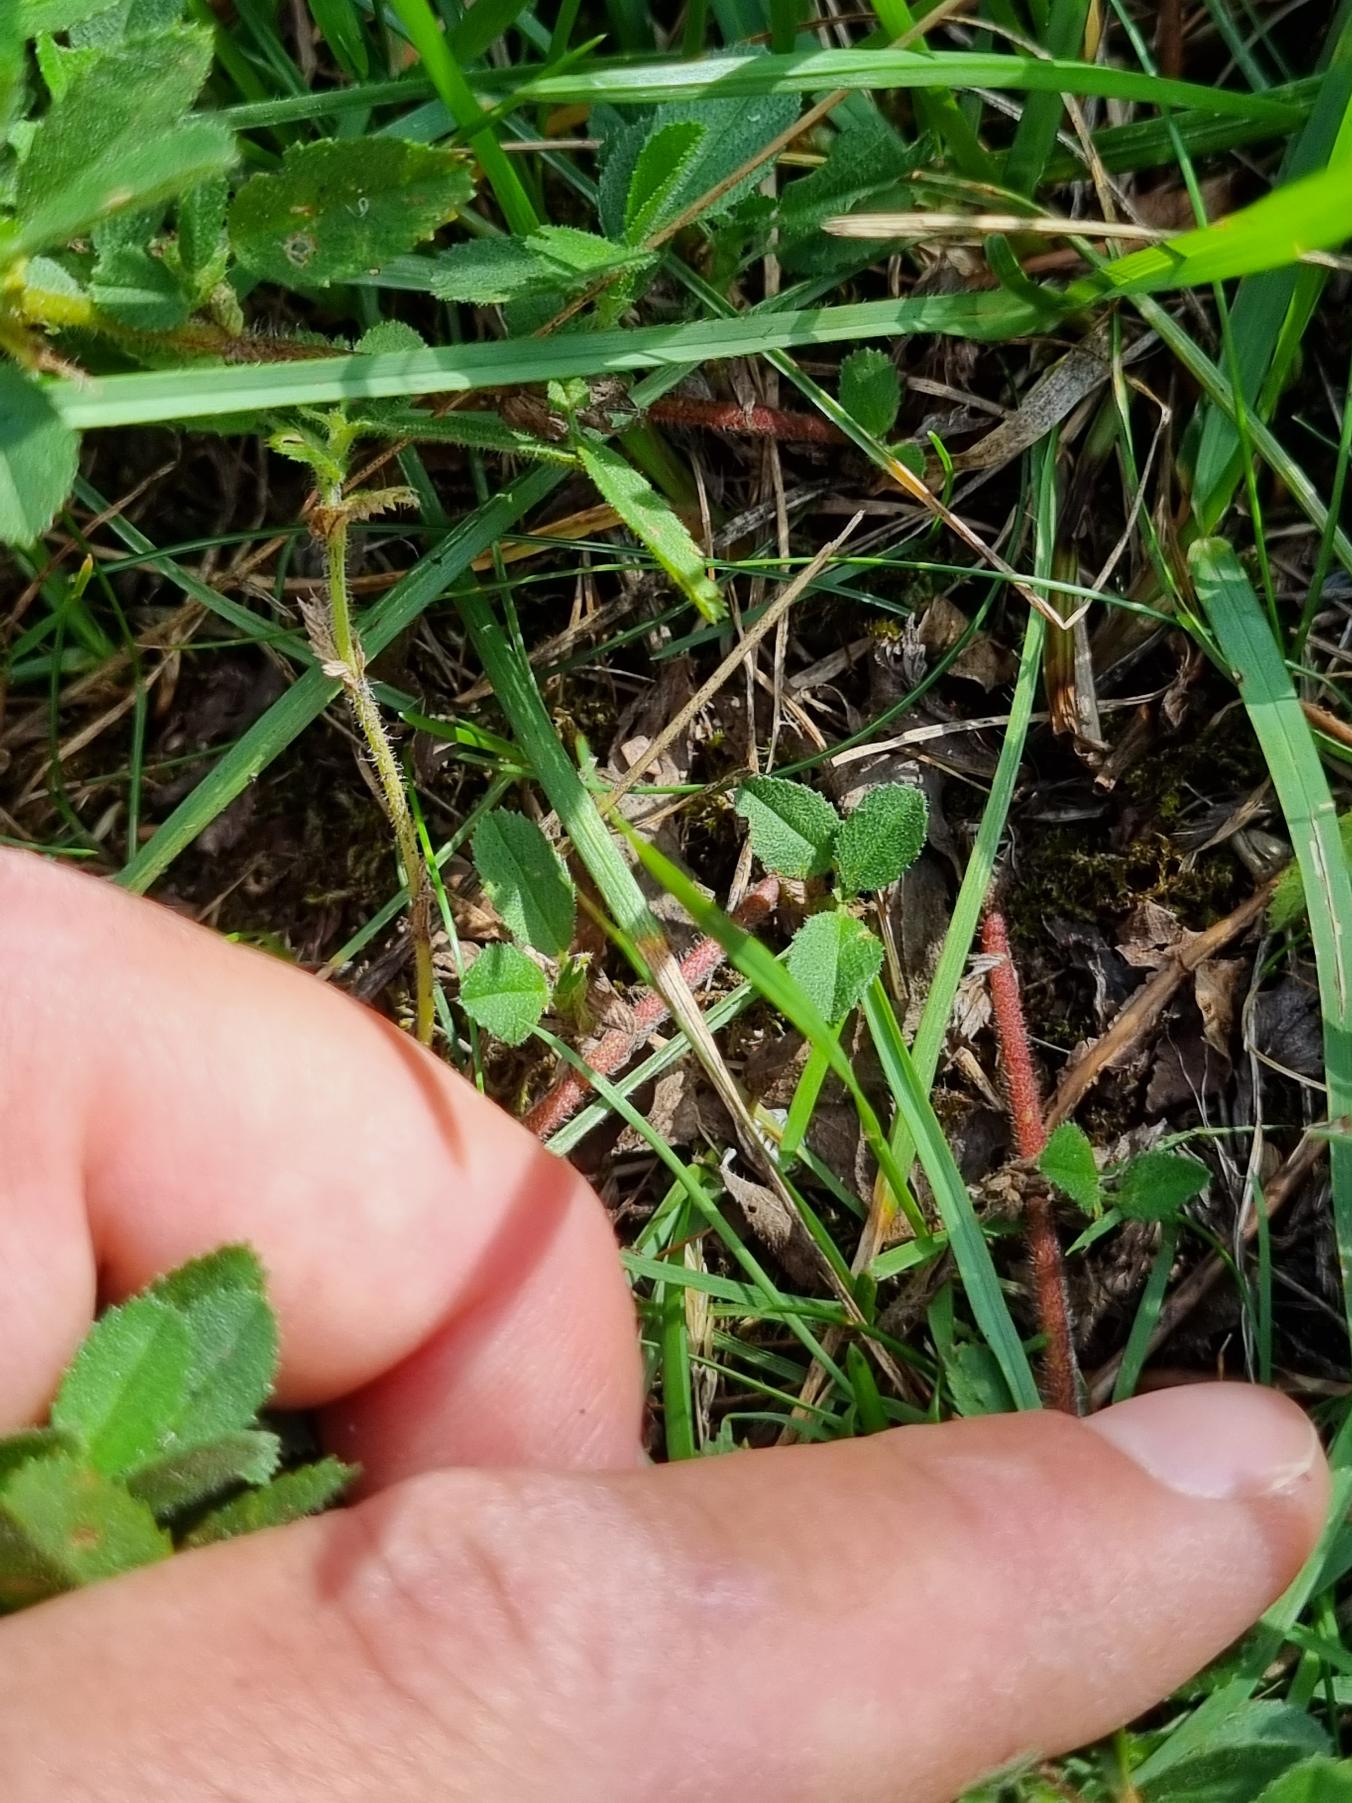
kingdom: Plantae
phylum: Tracheophyta
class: Magnoliopsida
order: Fabales
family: Fabaceae
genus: Ononis
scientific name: Ononis spinosa
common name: Mark-krageklo
